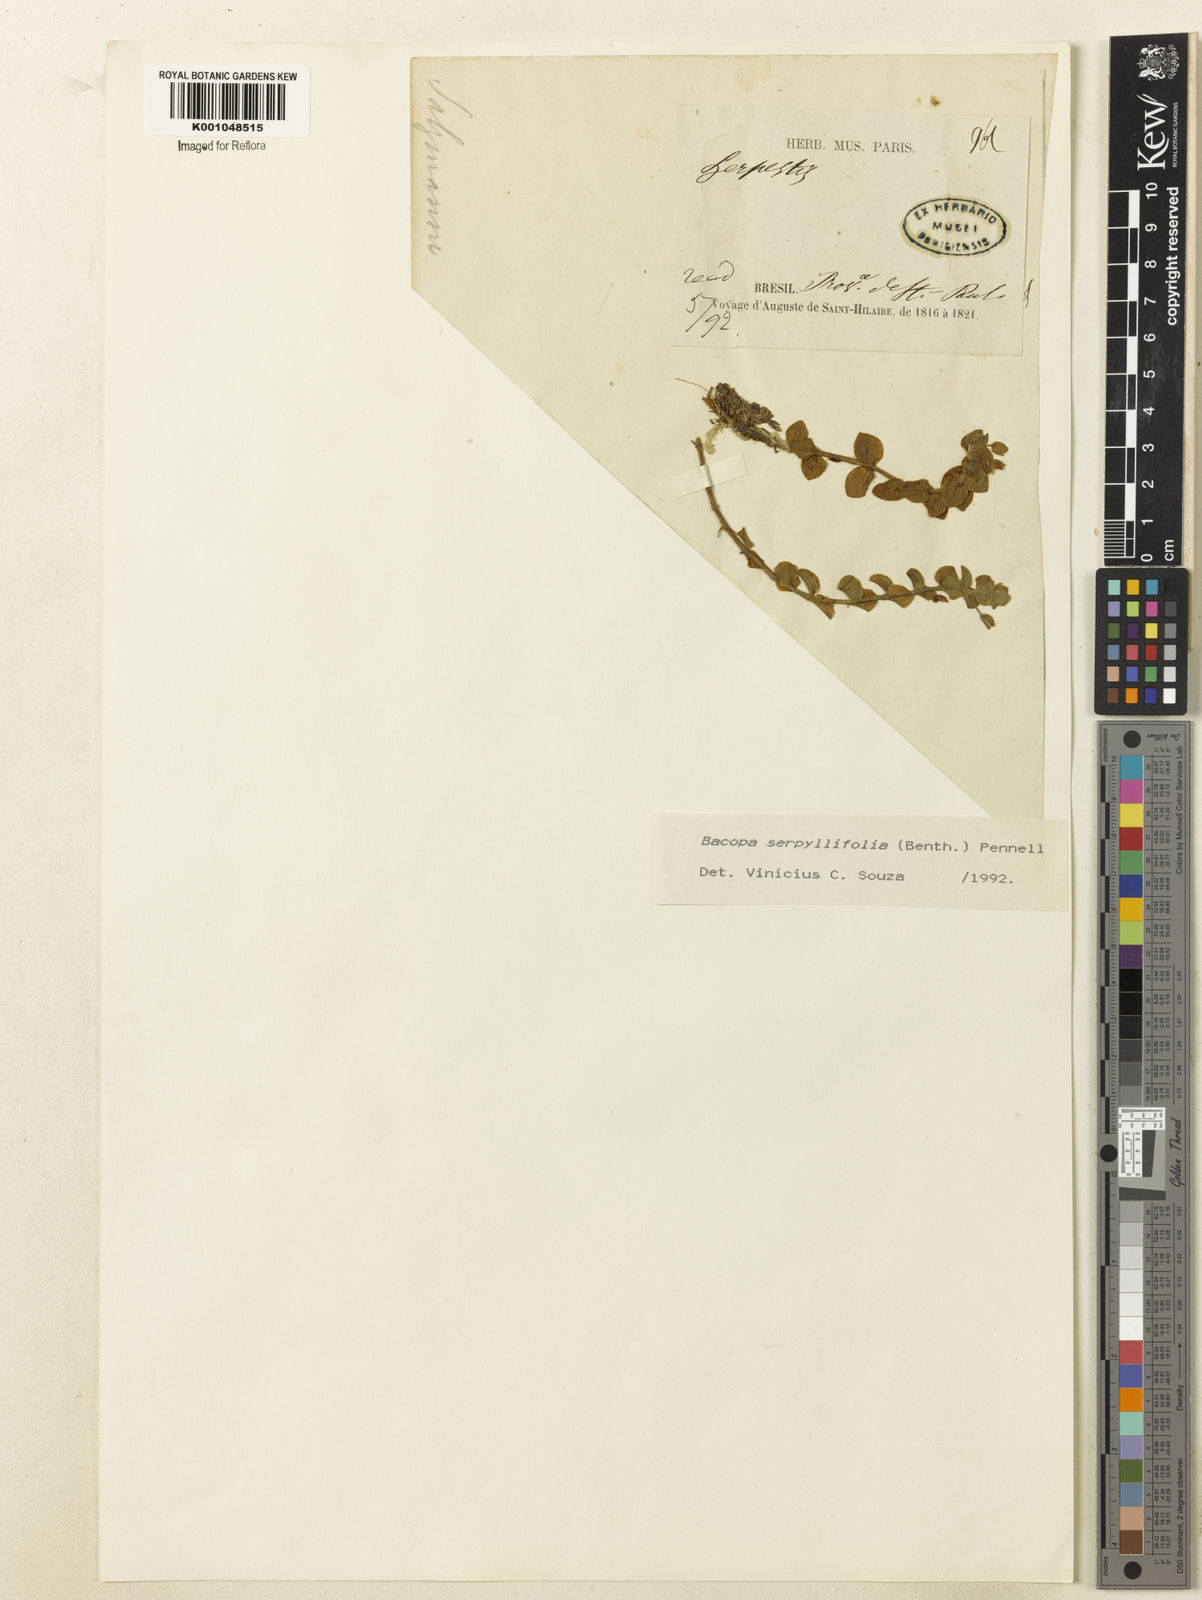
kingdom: Plantae
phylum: Tracheophyta
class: Magnoliopsida
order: Lamiales
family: Plantaginaceae
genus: Bacopa
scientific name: Bacopa serpyllifolia
